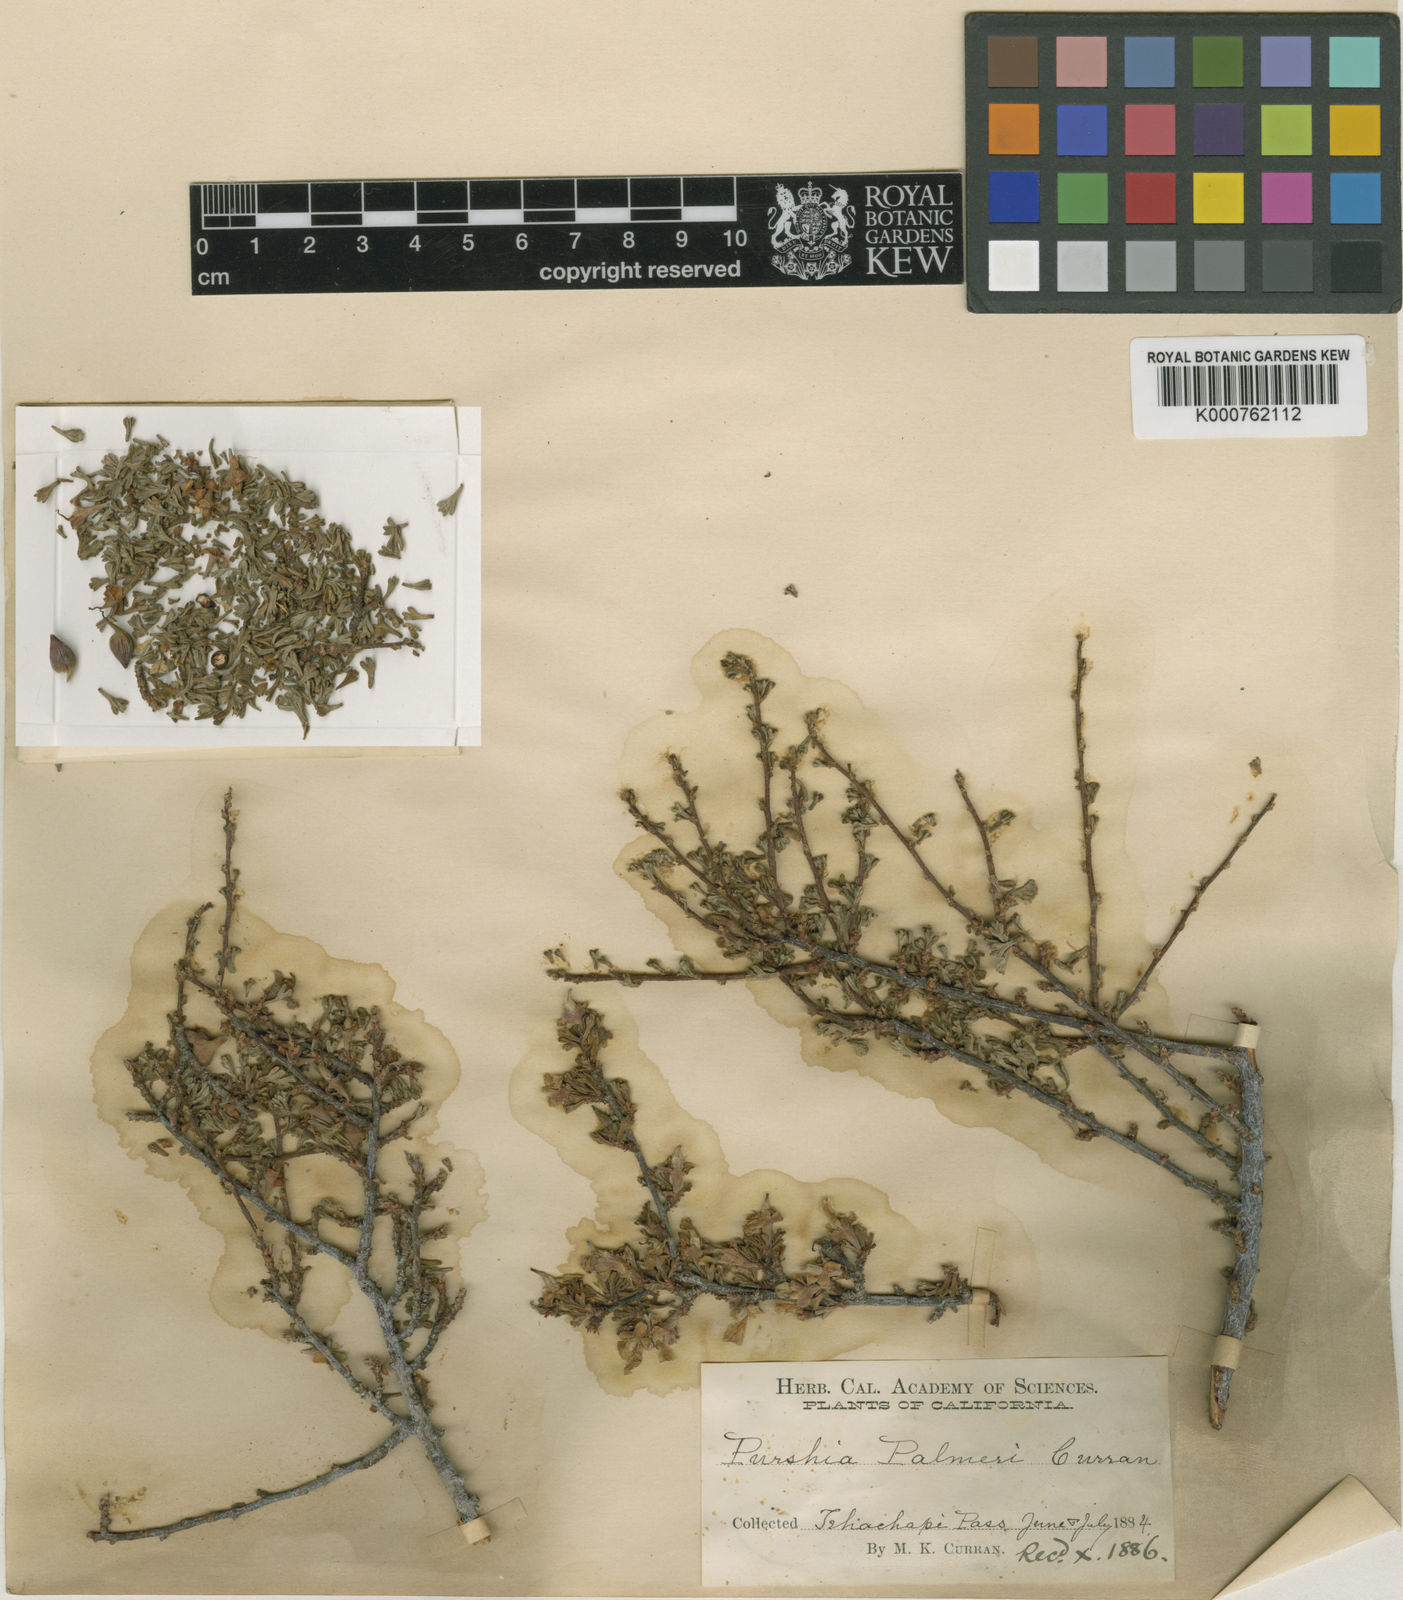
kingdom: Plantae
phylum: Tracheophyta
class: Magnoliopsida
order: Rosales
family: Rosaceae
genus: Purshia
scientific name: Purshia
